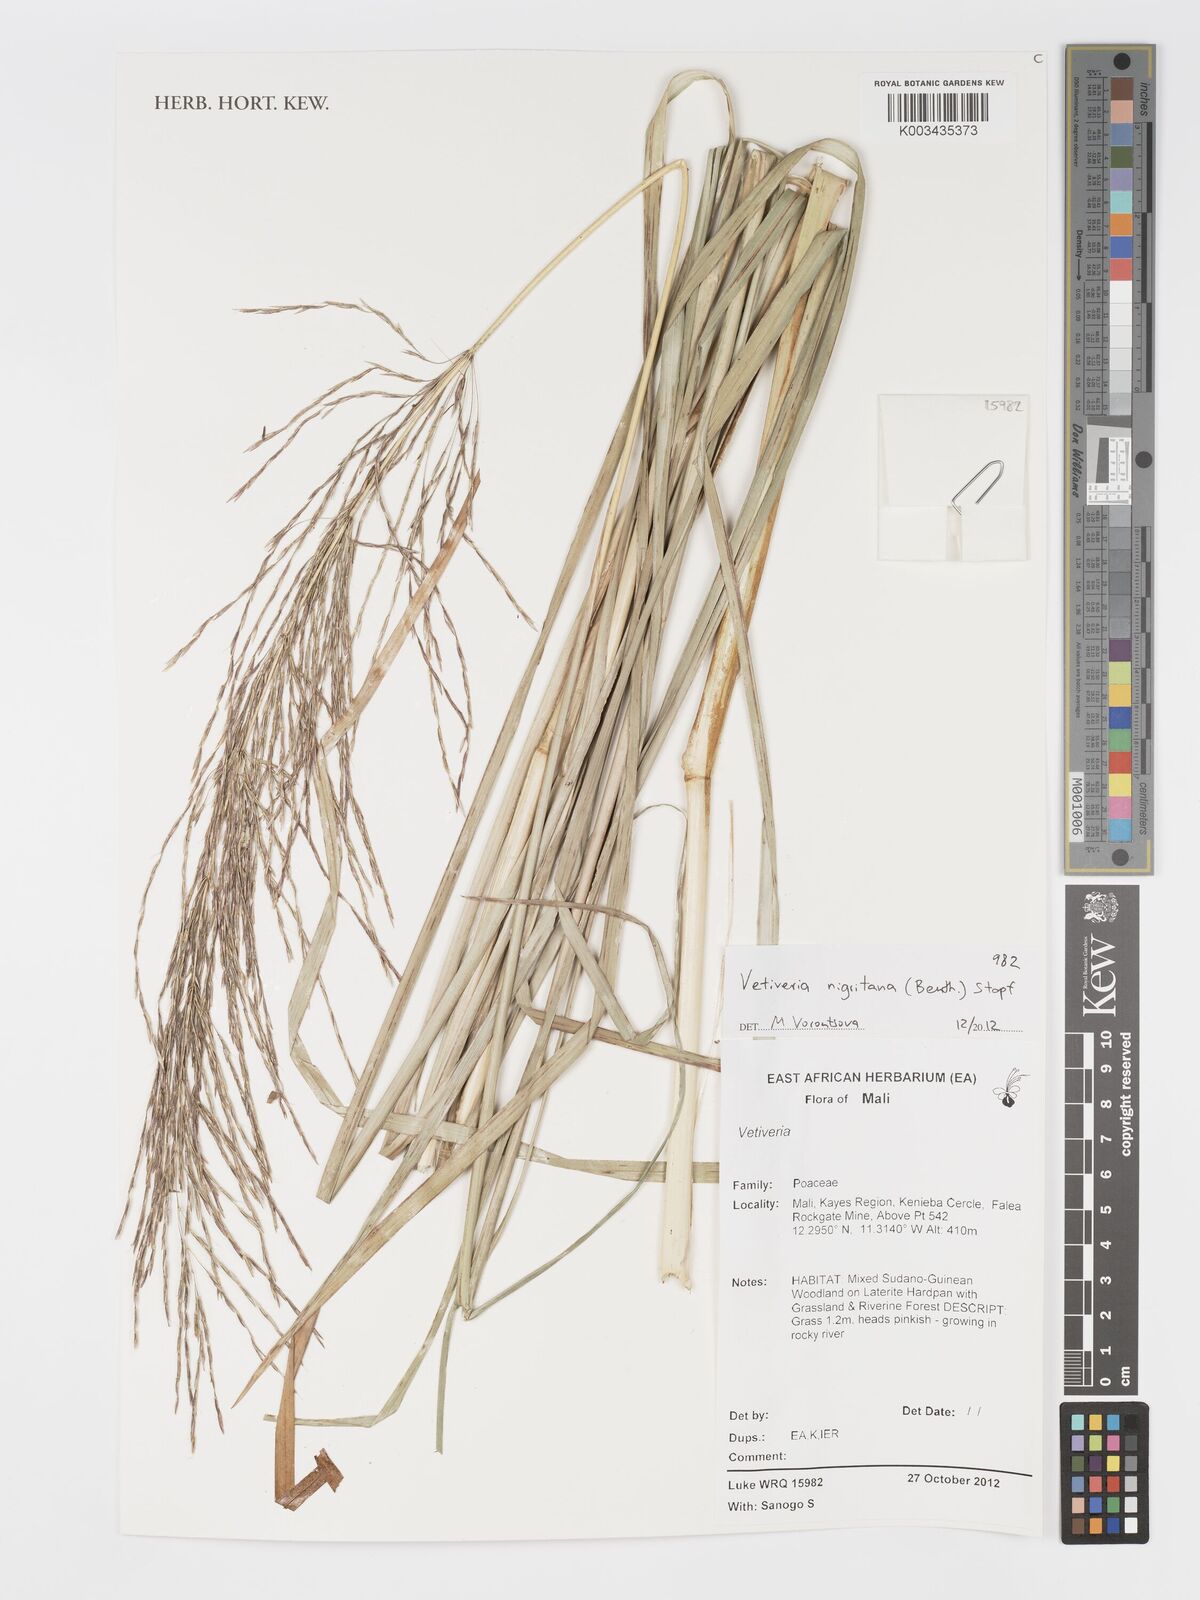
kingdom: Plantae
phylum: Tracheophyta
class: Liliopsida
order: Poales
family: Poaceae
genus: Chrysopogon
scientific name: Chrysopogon nigritanus
